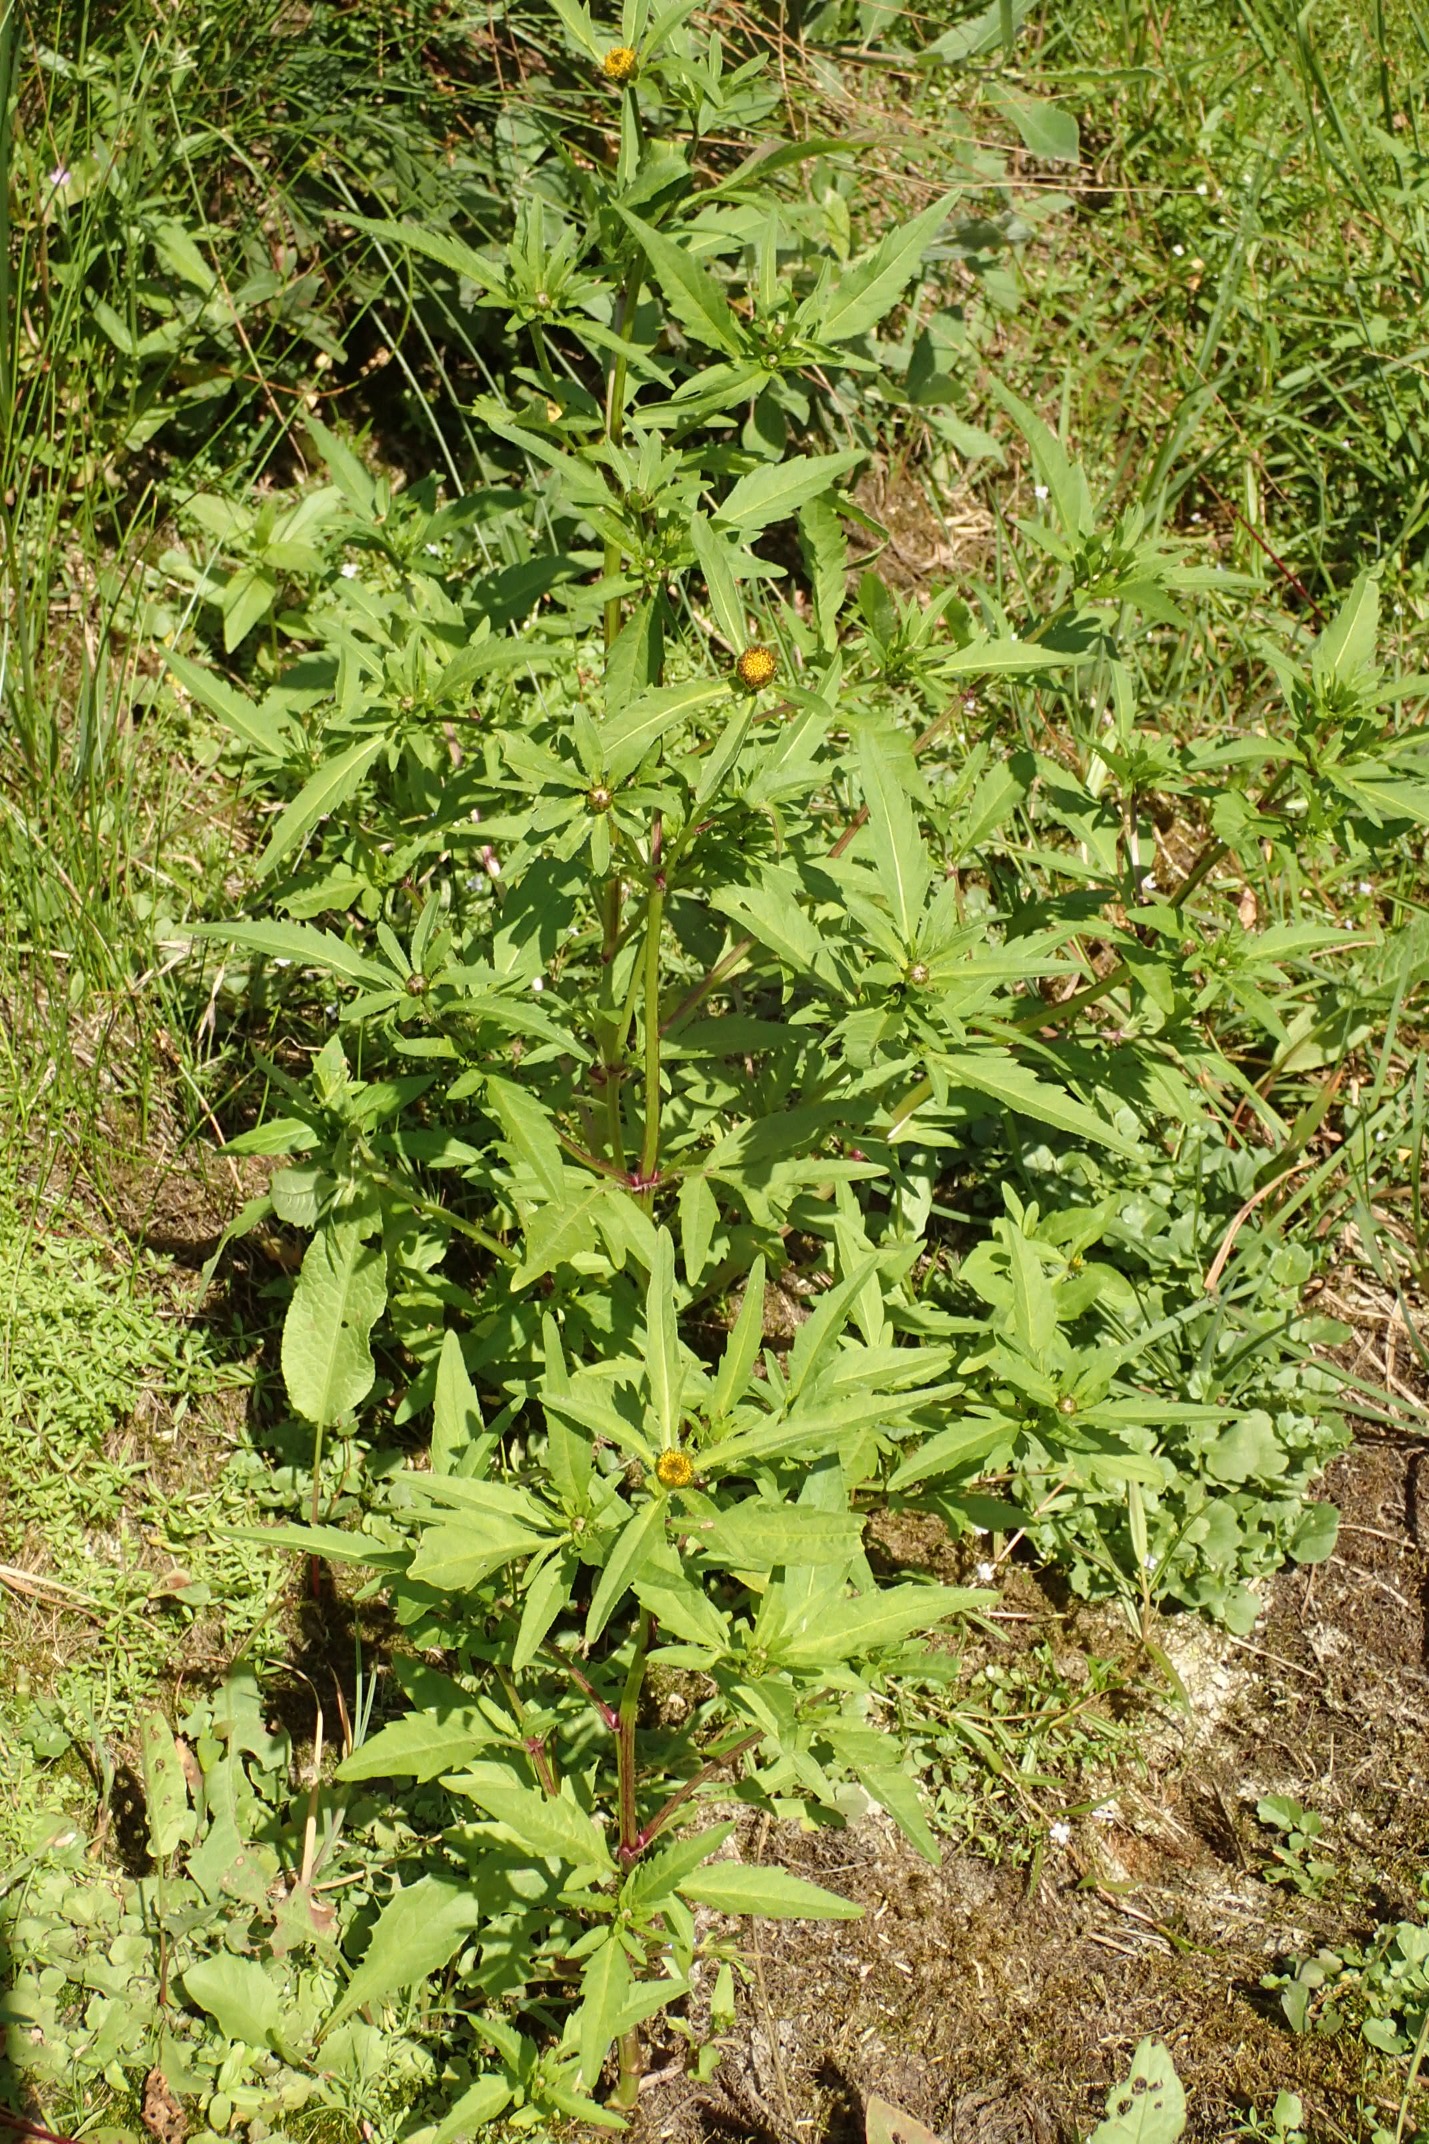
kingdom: Plantae
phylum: Tracheophyta
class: Magnoliopsida
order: Asterales
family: Asteraceae
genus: Bidens
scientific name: Bidens tripartita
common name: Fliget brøndsel
